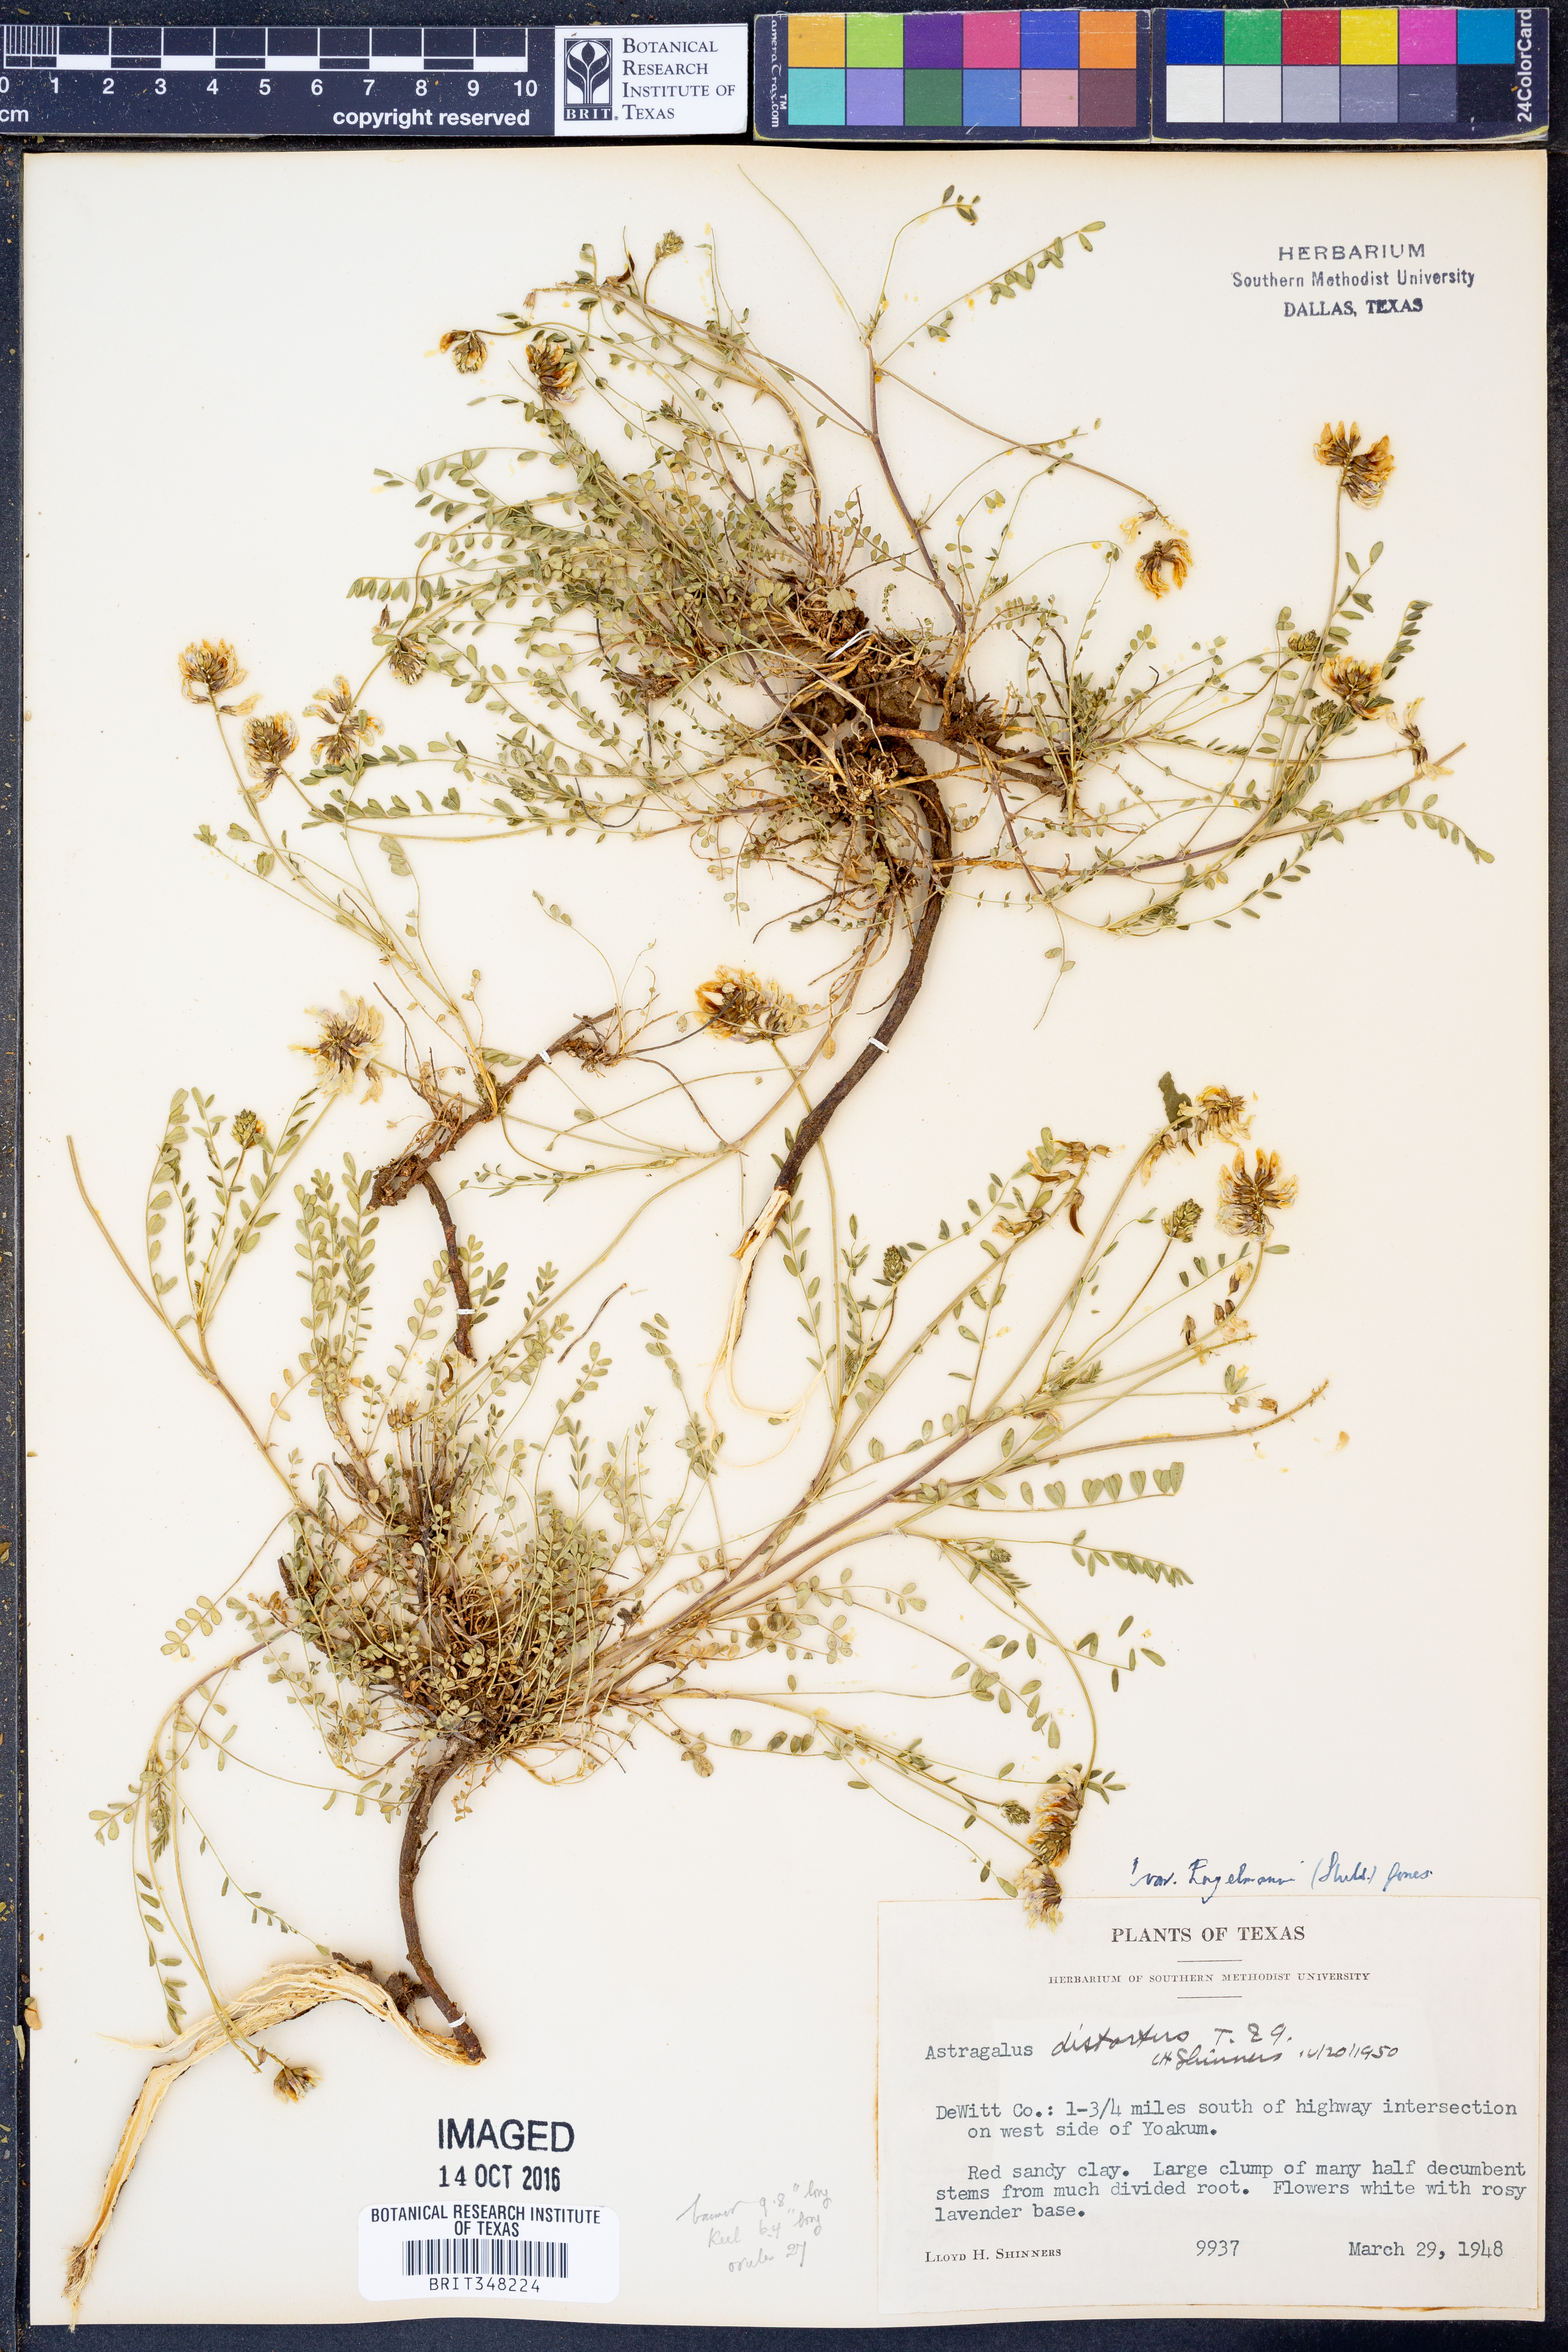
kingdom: Plantae
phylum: Tracheophyta
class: Magnoliopsida
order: Fabales
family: Fabaceae
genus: Astragalus
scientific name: Astragalus distortus
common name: Ozark milk-vetch
